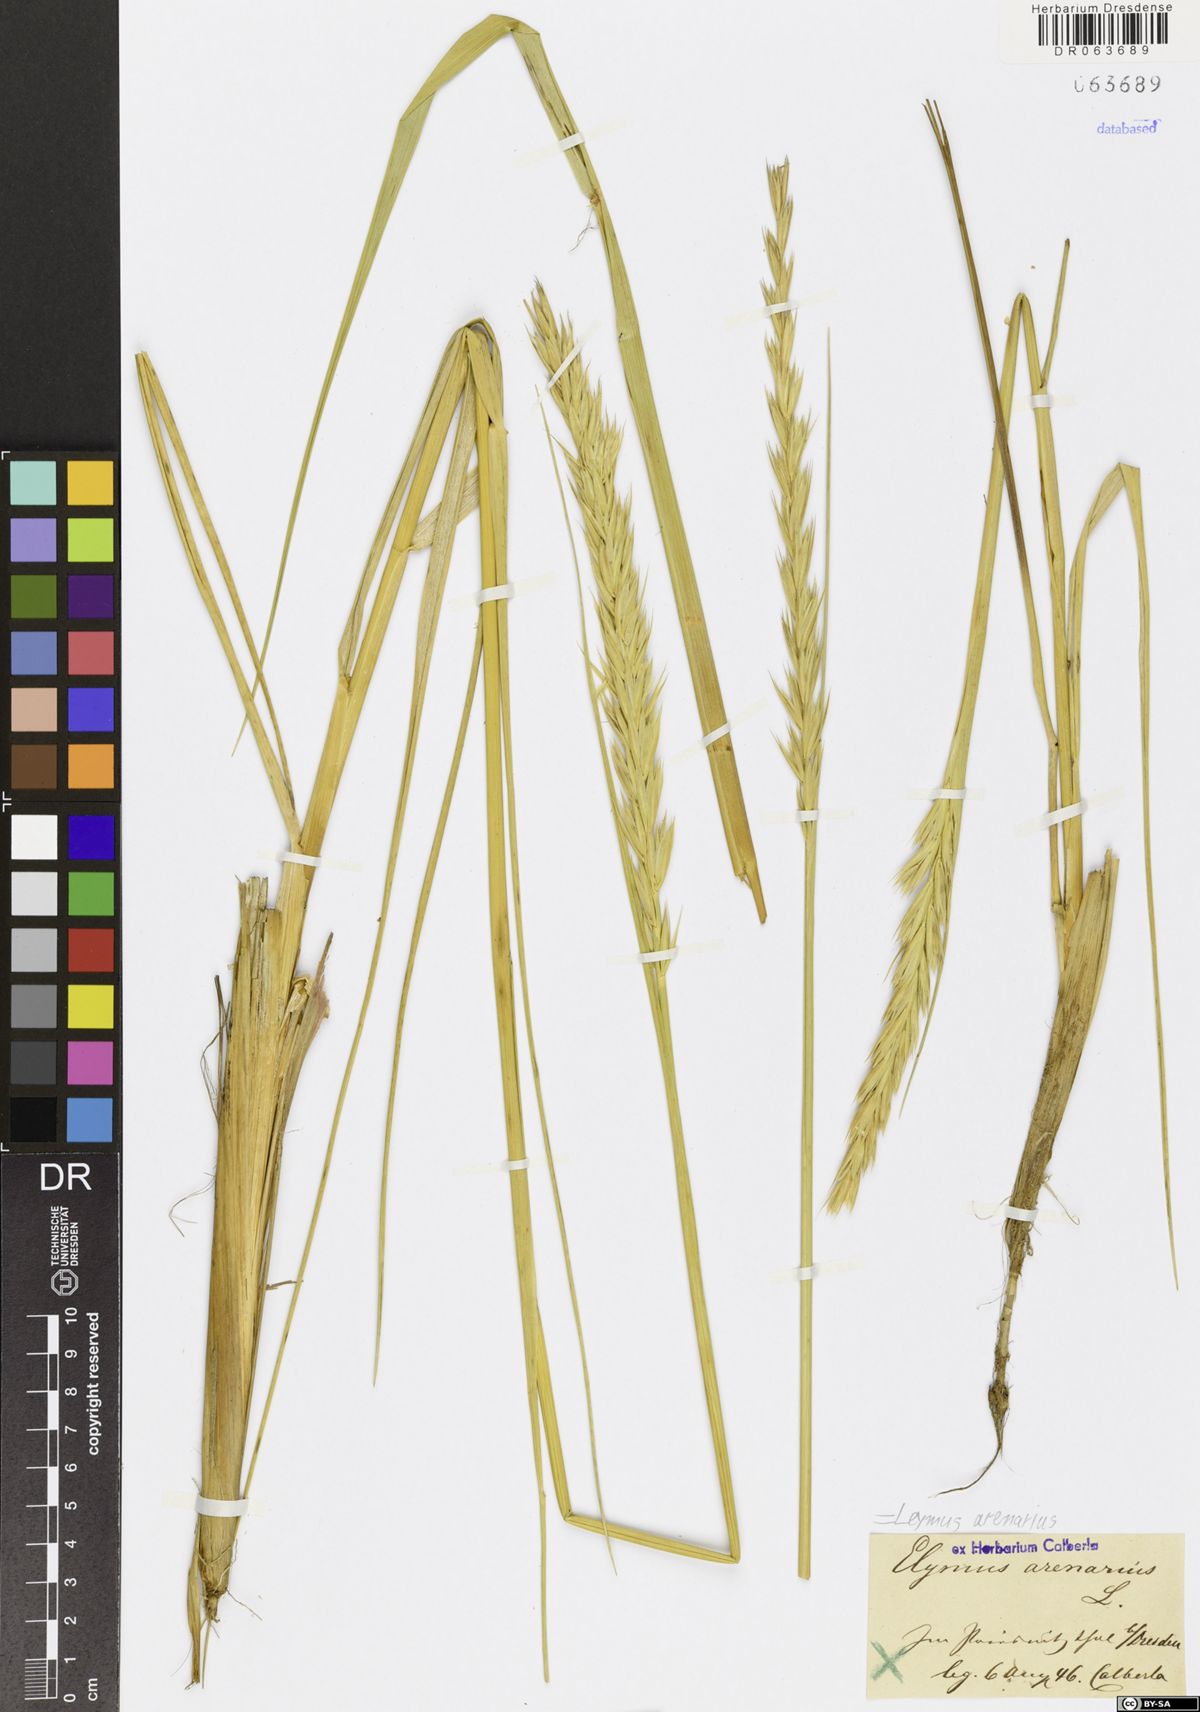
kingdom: Plantae
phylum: Tracheophyta
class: Liliopsida
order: Poales
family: Poaceae
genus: Leymus
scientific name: Leymus arenarius
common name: Lyme-grass
